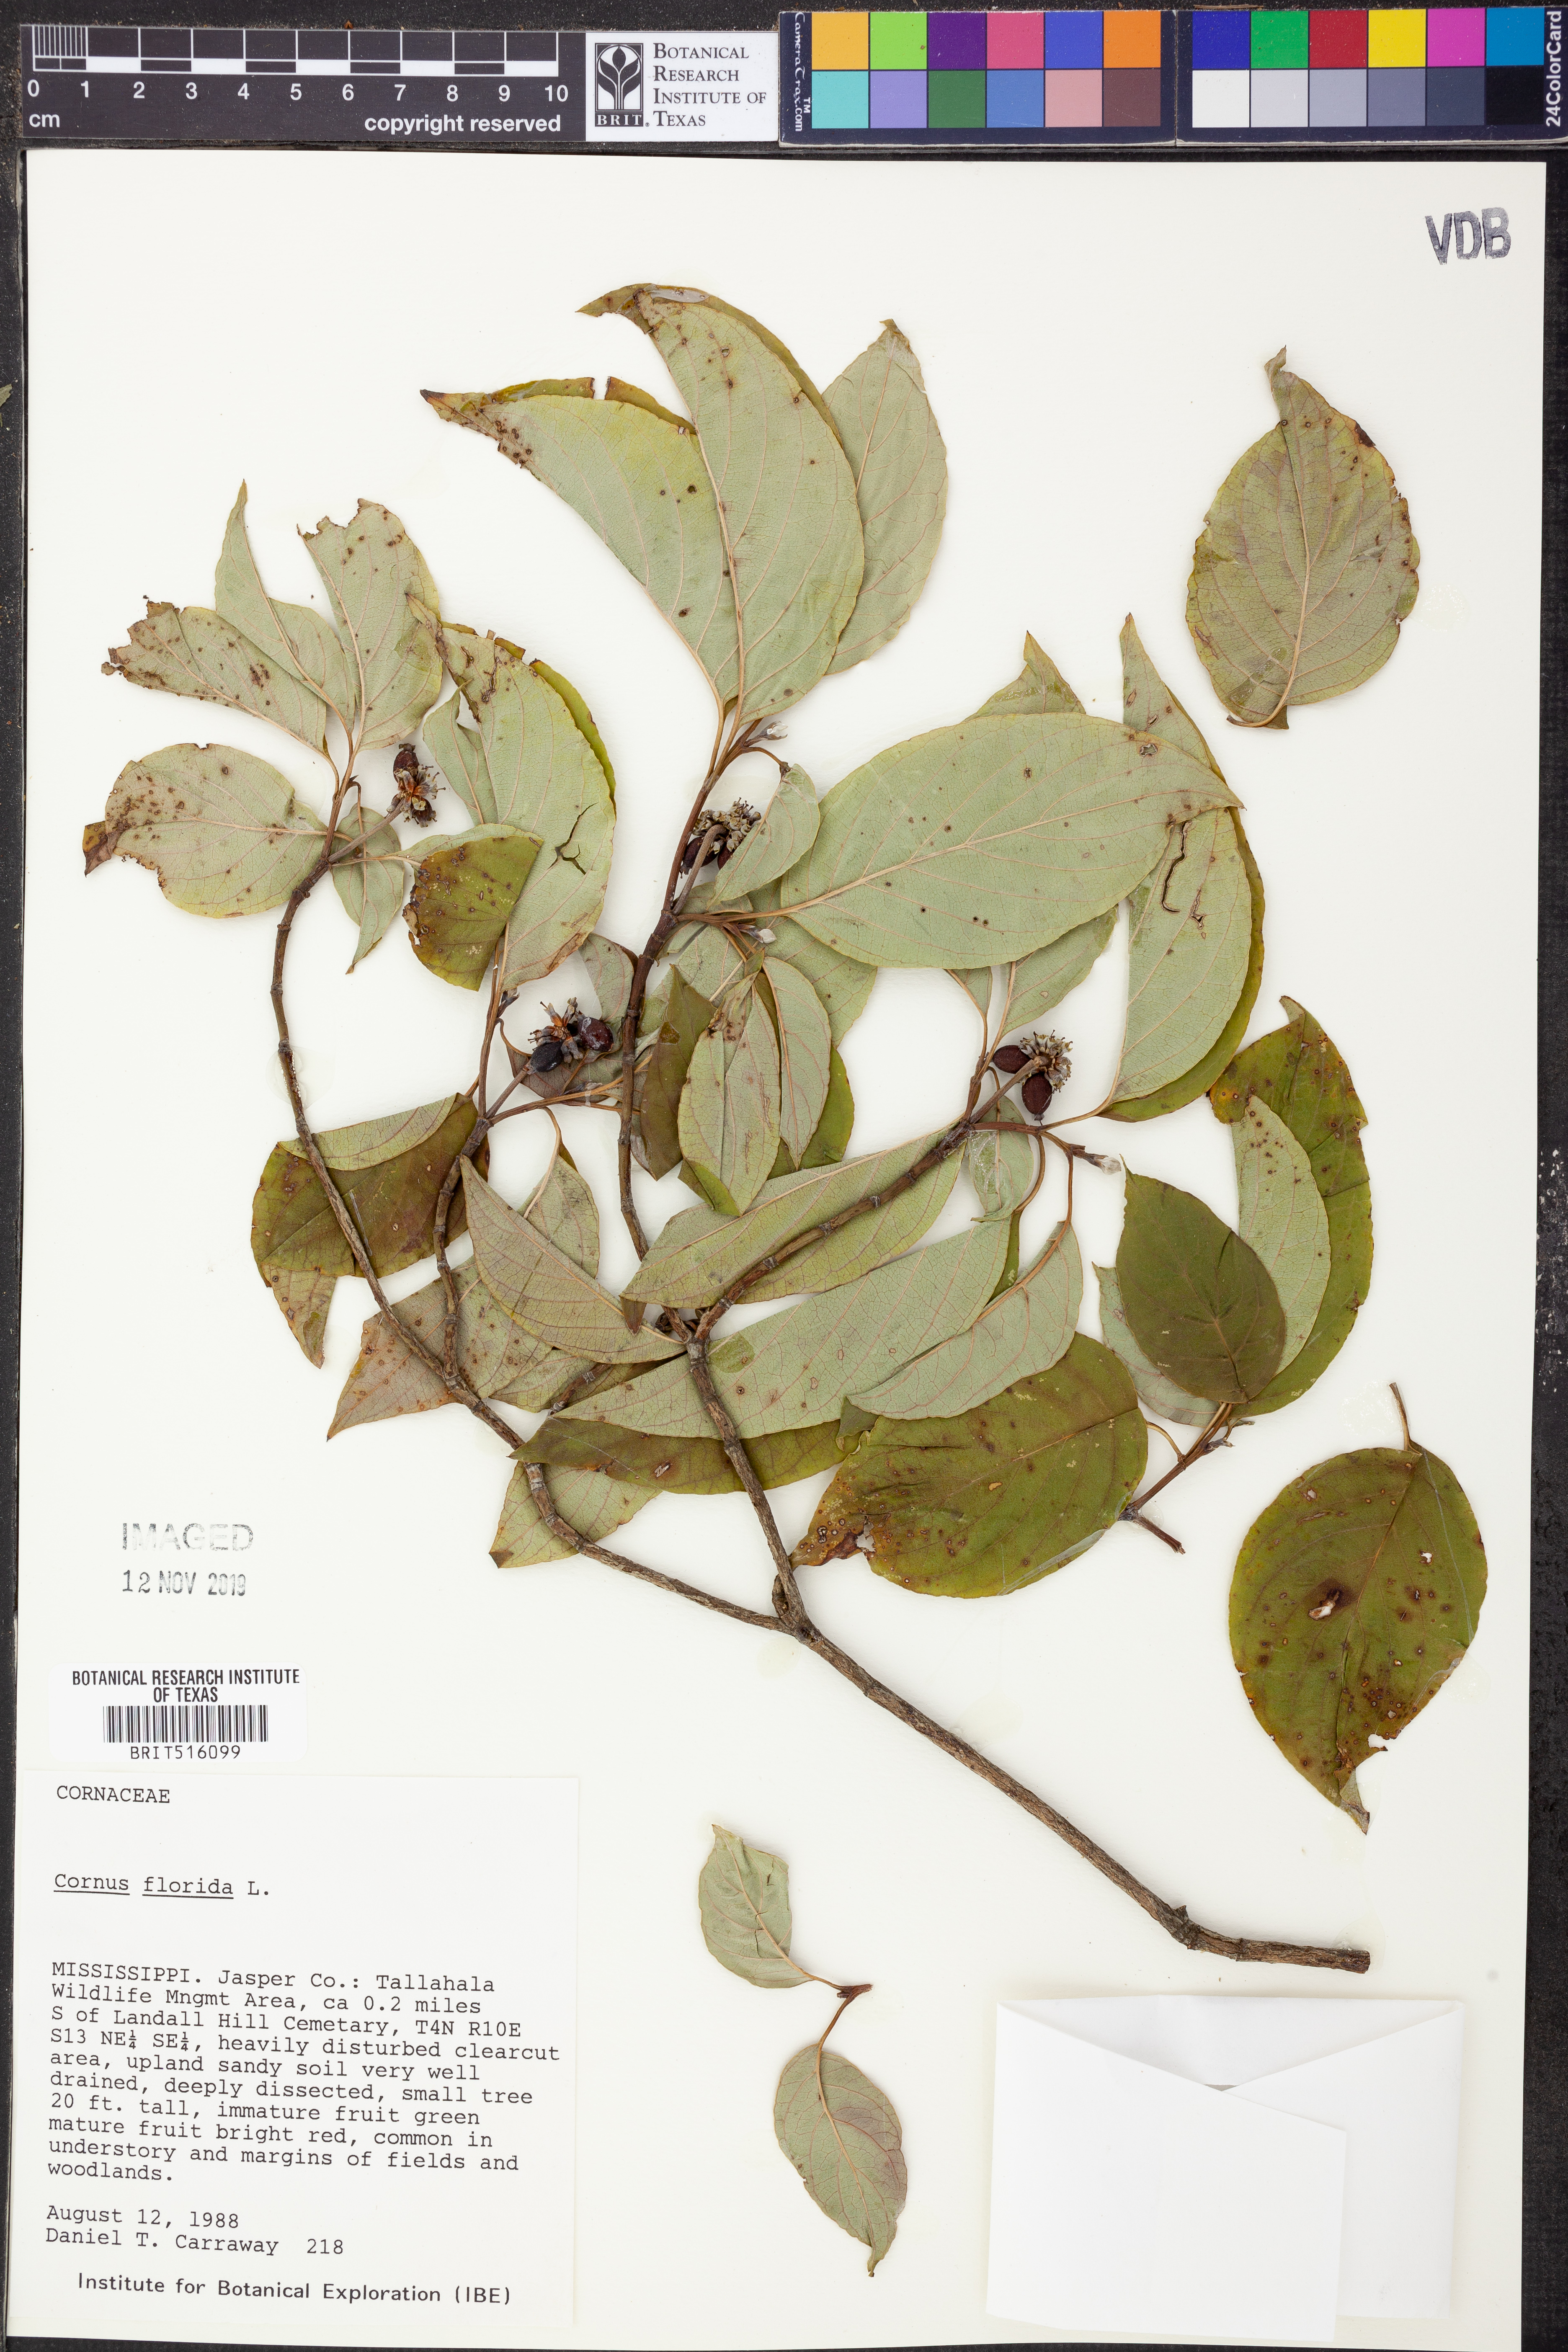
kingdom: Plantae
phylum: Tracheophyta
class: Magnoliopsida
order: Cornales
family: Cornaceae
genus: Cornus
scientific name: Cornus florida
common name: Flowering dogwood
